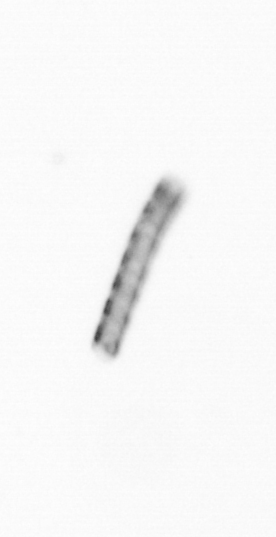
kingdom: Chromista
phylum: Ochrophyta
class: Bacillariophyceae
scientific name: Bacillariophyceae
